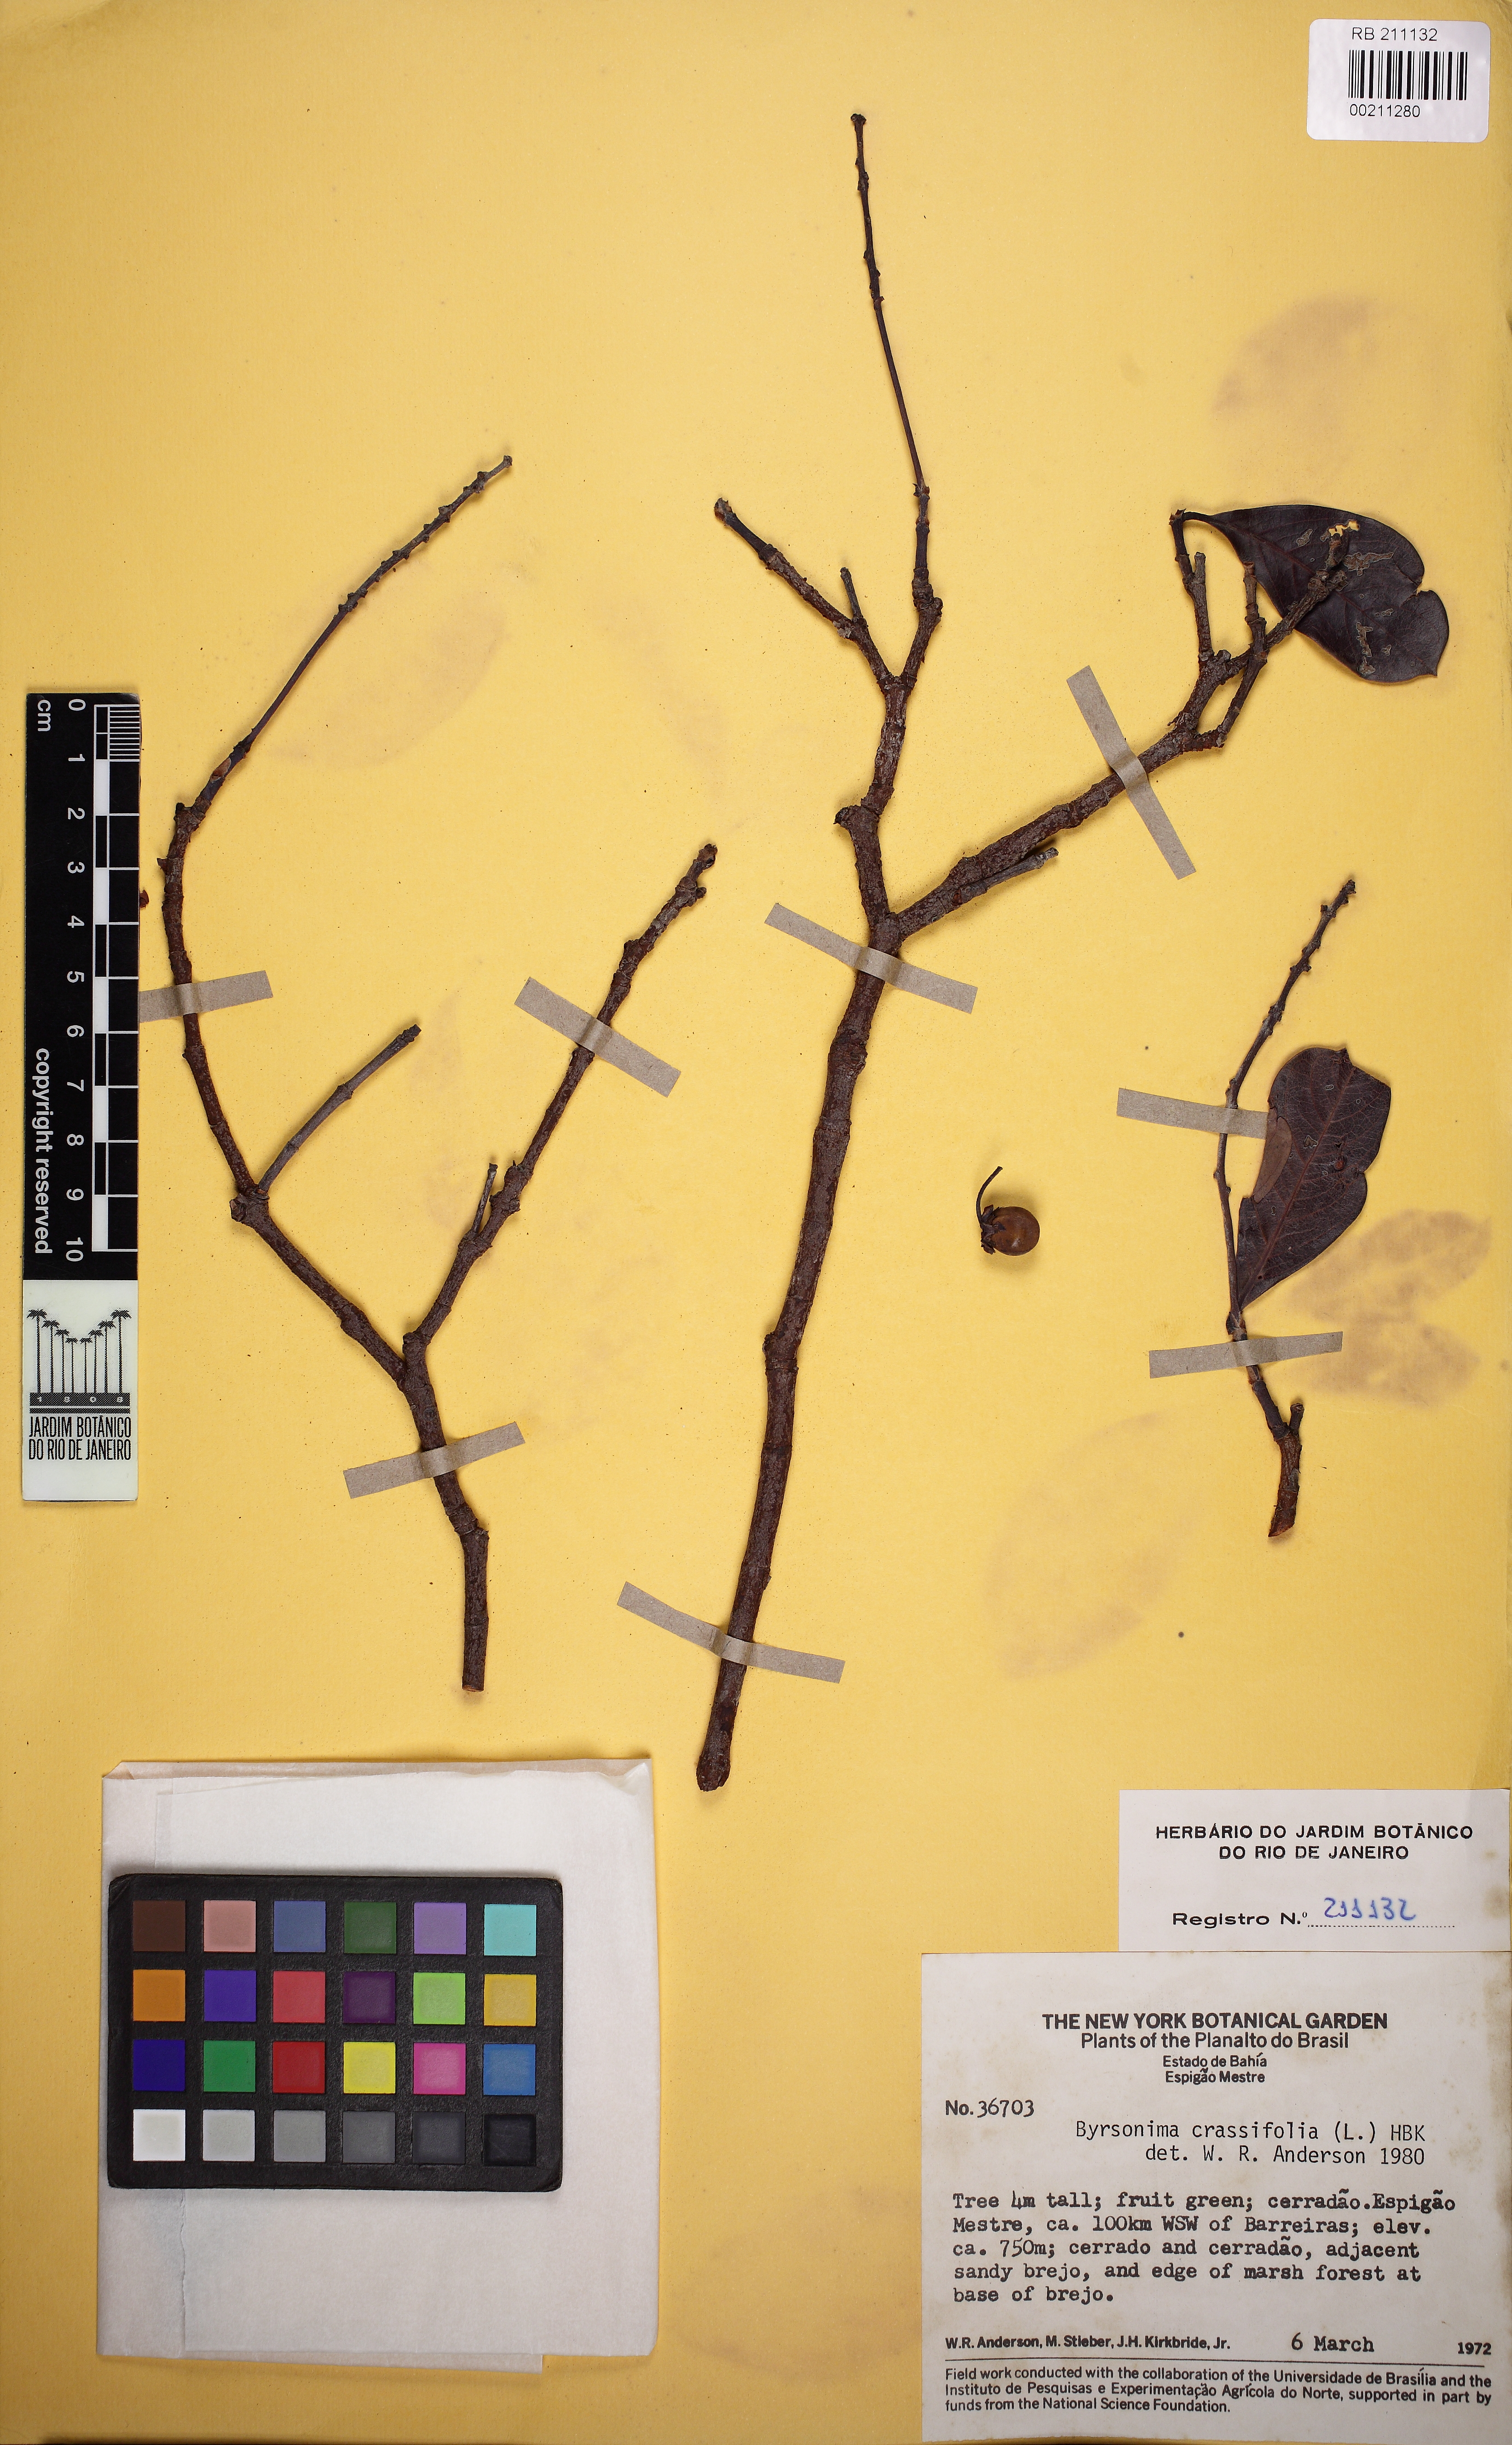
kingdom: Plantae
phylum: Tracheophyta
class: Magnoliopsida
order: Malpighiales
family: Malpighiaceae
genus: Byrsonima
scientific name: Byrsonima crassifolia
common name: Golden spoon
